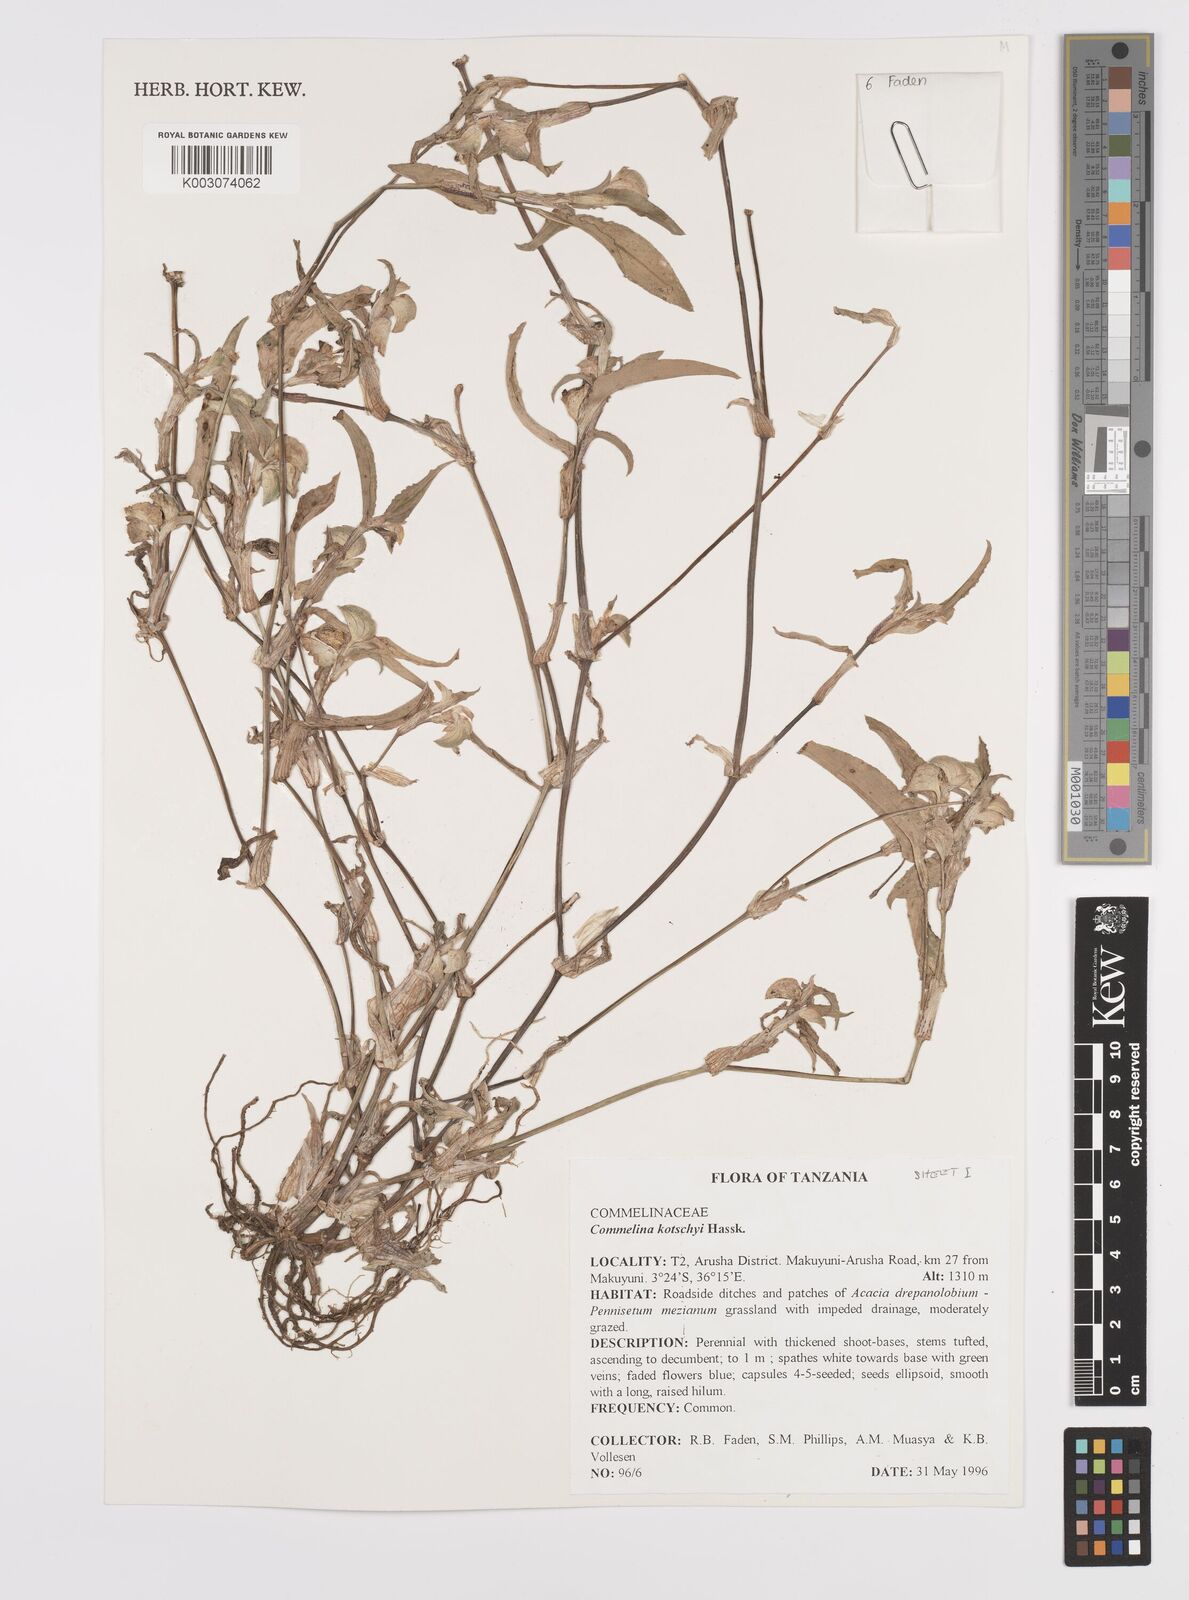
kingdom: Plantae
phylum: Tracheophyta
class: Liliopsida
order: Commelinales
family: Commelinaceae
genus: Commelina
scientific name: Commelina kotschyi
